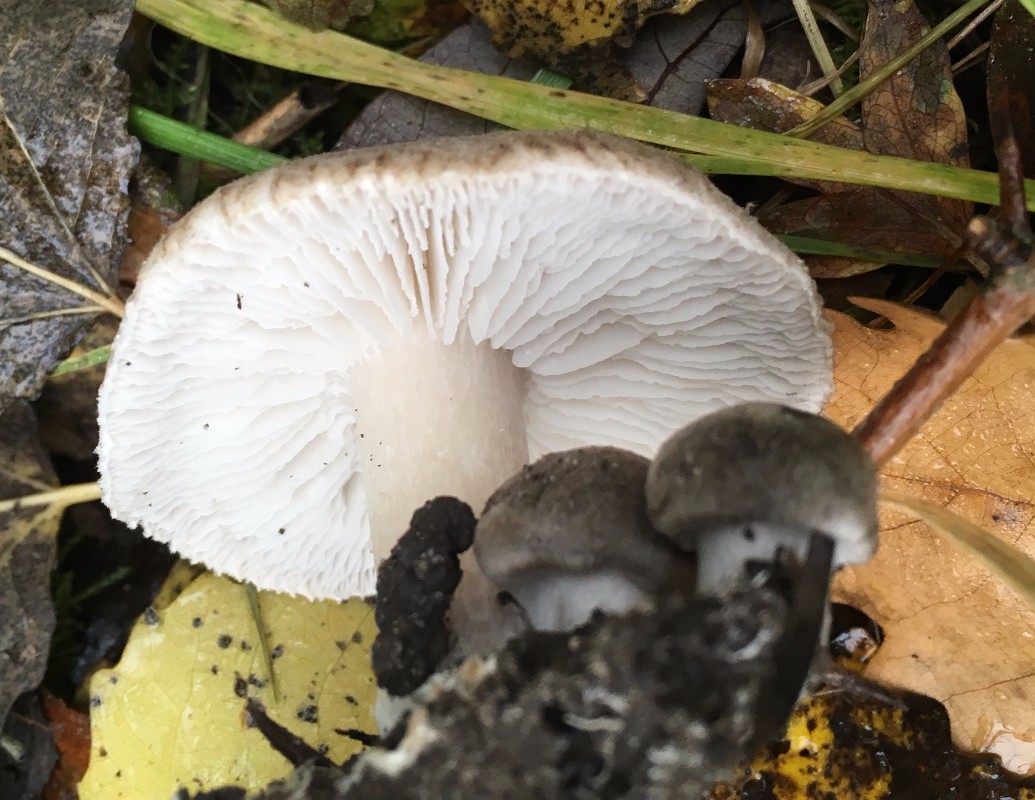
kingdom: Fungi
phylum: Basidiomycota
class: Agaricomycetes
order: Agaricales
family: Tricholomataceae
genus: Tricholoma
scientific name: Tricholoma scalpturatum
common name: gulplettet ridderhat
